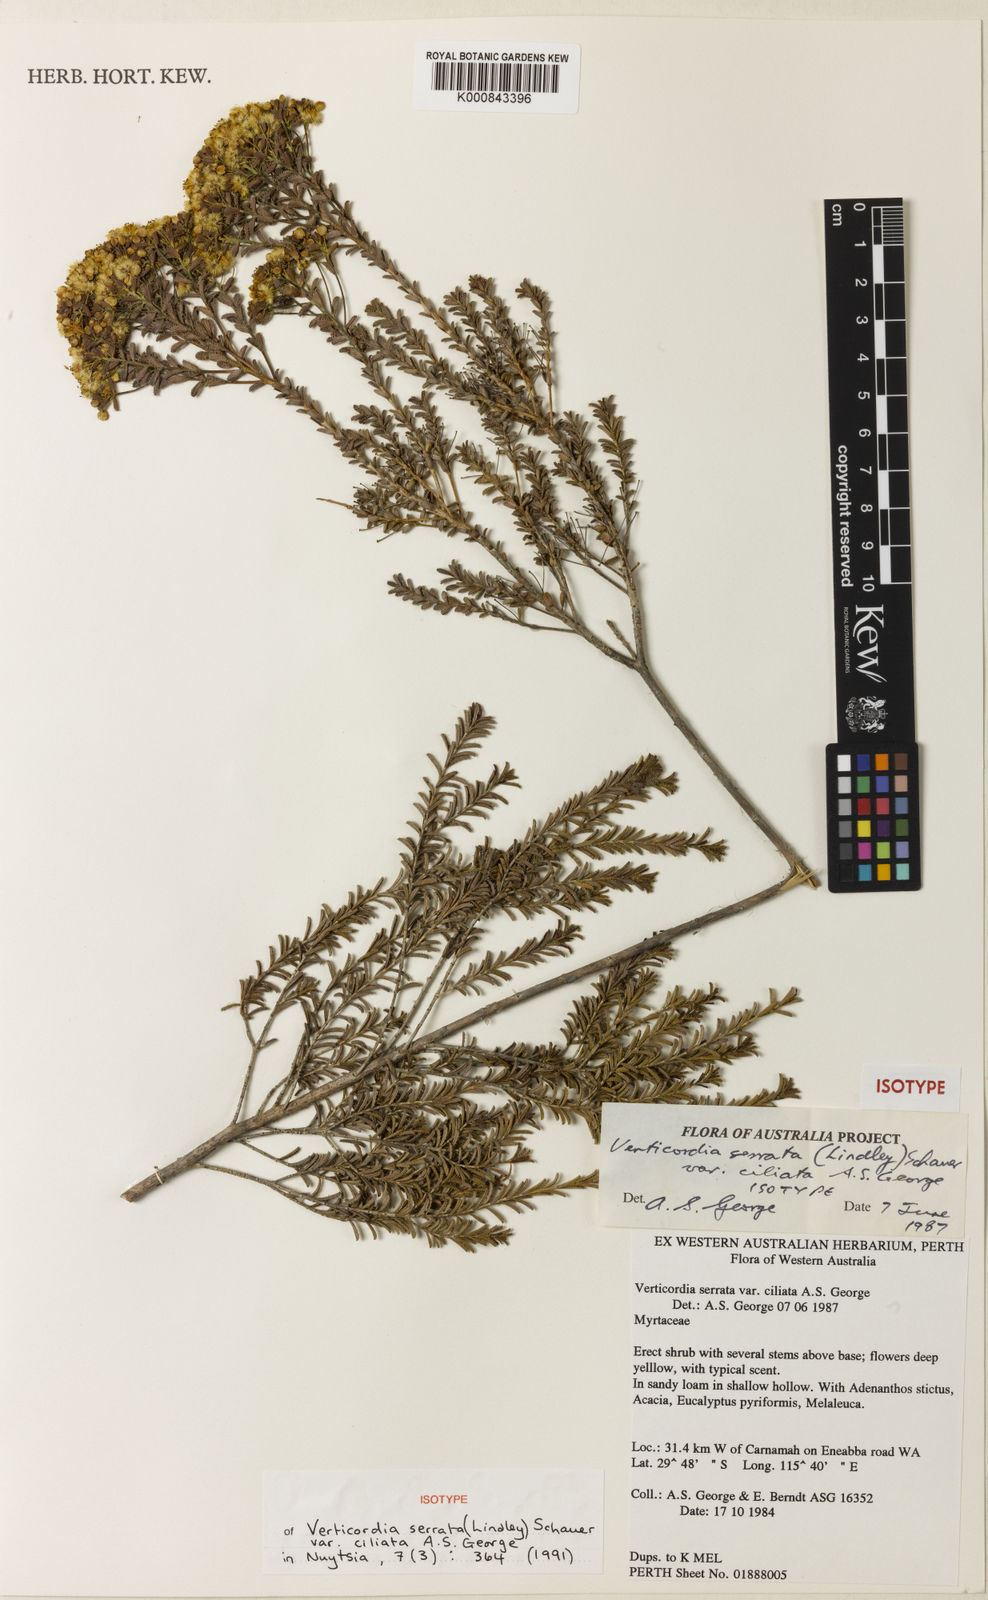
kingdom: Plantae
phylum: Tracheophyta
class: Magnoliopsida
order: Myrtales
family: Myrtaceae
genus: Verticordia
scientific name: Verticordia serrata
